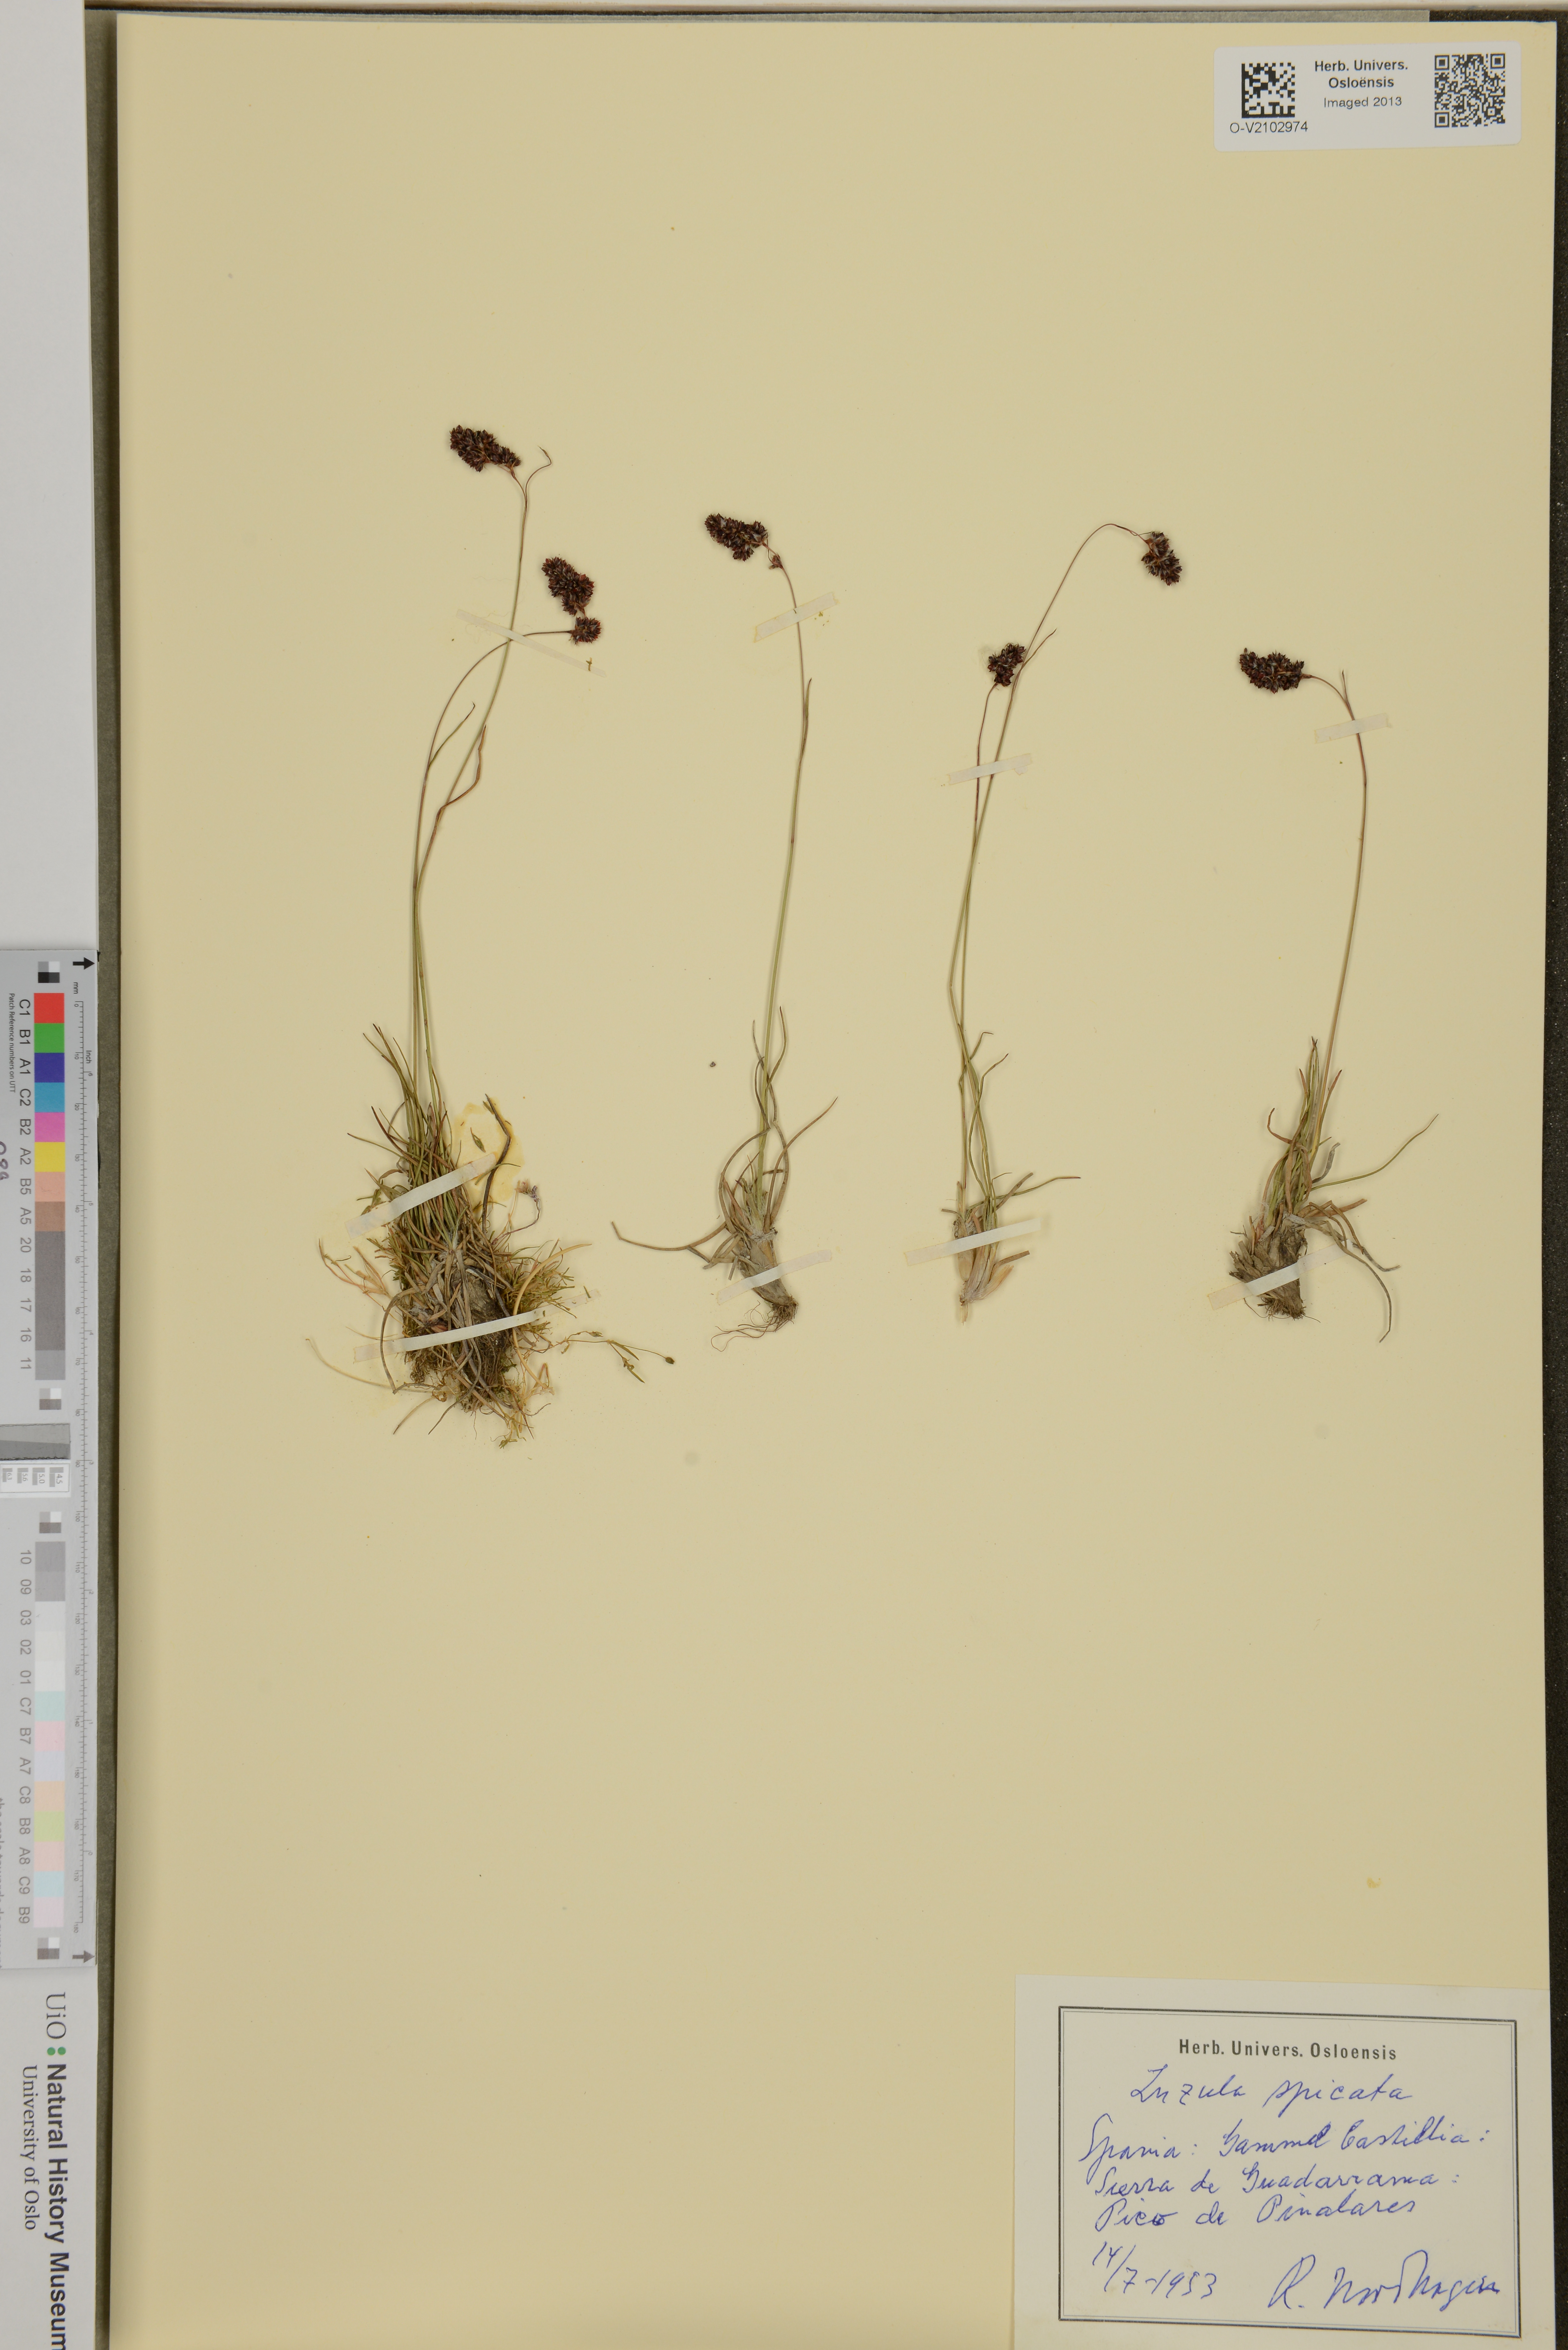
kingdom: Plantae
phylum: Tracheophyta
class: Liliopsida
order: Poales
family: Juncaceae
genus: Luzula
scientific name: Luzula spicata
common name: Spiked wood-rush
